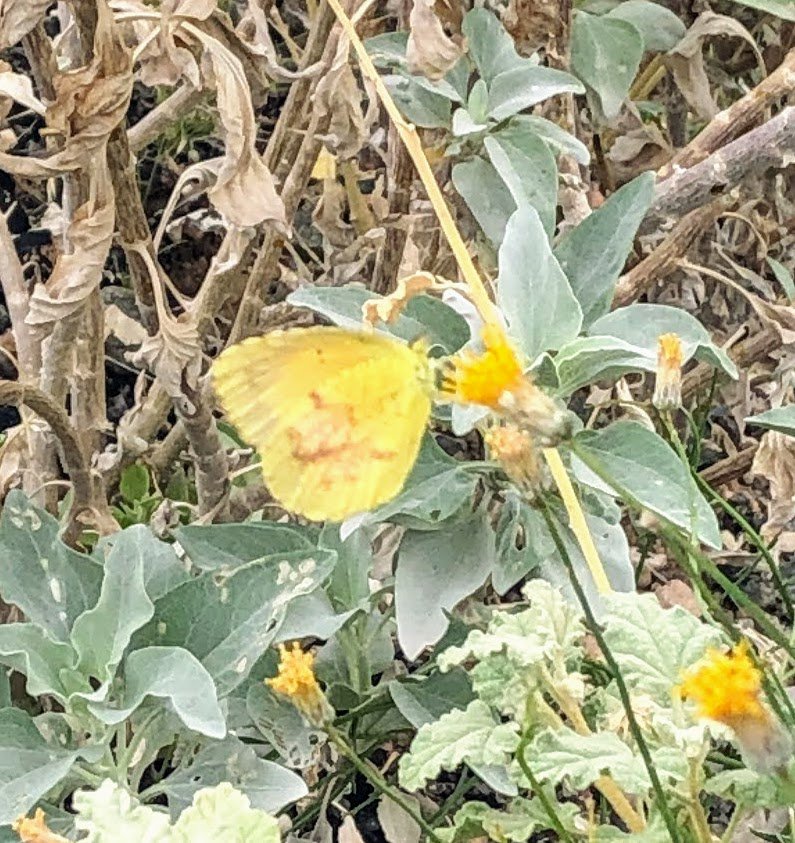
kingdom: Animalia
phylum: Arthropoda
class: Insecta
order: Lepidoptera
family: Pieridae
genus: Abaeis
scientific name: Abaeis nicippe
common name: Sleepy Orange
